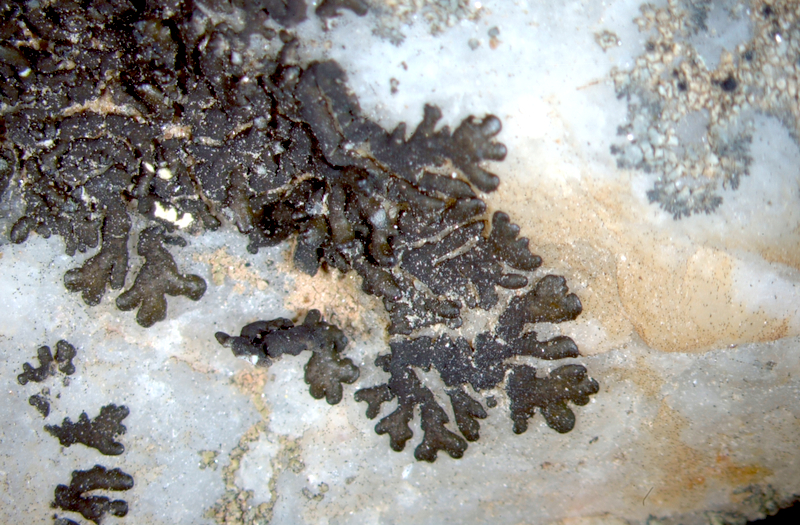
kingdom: Fungi
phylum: Ascomycota
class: Lecanoromycetes
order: Caliciales
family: Caliciaceae
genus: Buellia
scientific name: Buellia
